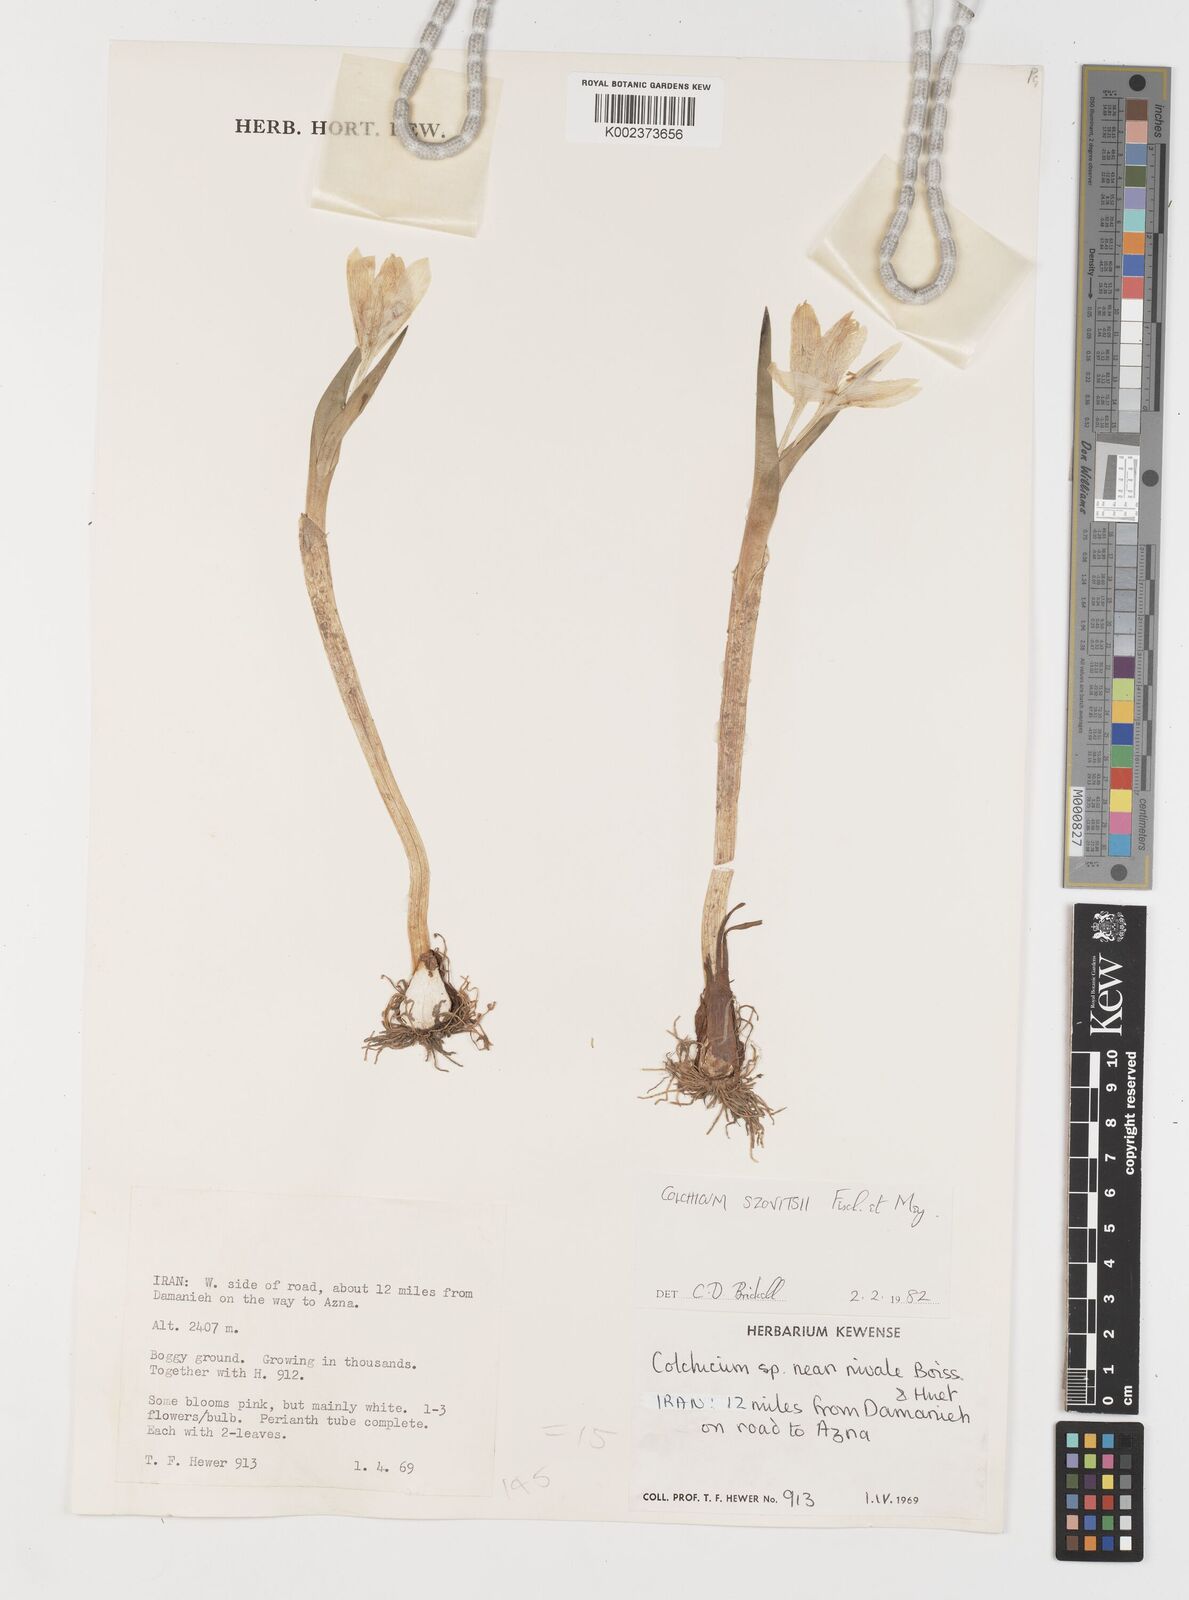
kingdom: Plantae
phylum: Tracheophyta
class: Liliopsida
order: Liliales
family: Colchicaceae
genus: Colchicum
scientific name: Colchicum szovitsii
